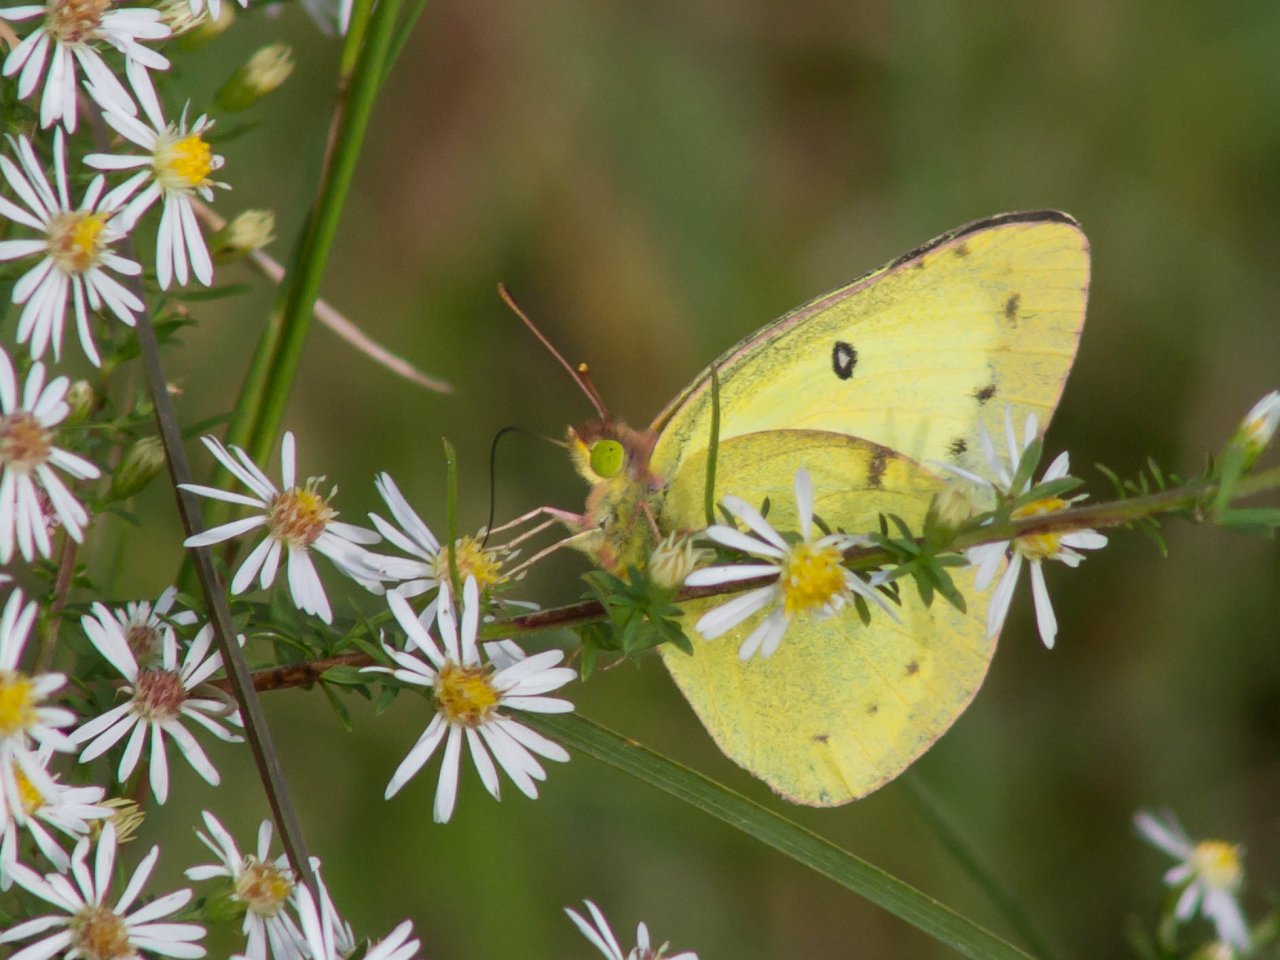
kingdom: Animalia
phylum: Arthropoda
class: Insecta
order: Lepidoptera
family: Pieridae
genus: Colias
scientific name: Colias philodice
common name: Clouded Sulphur
